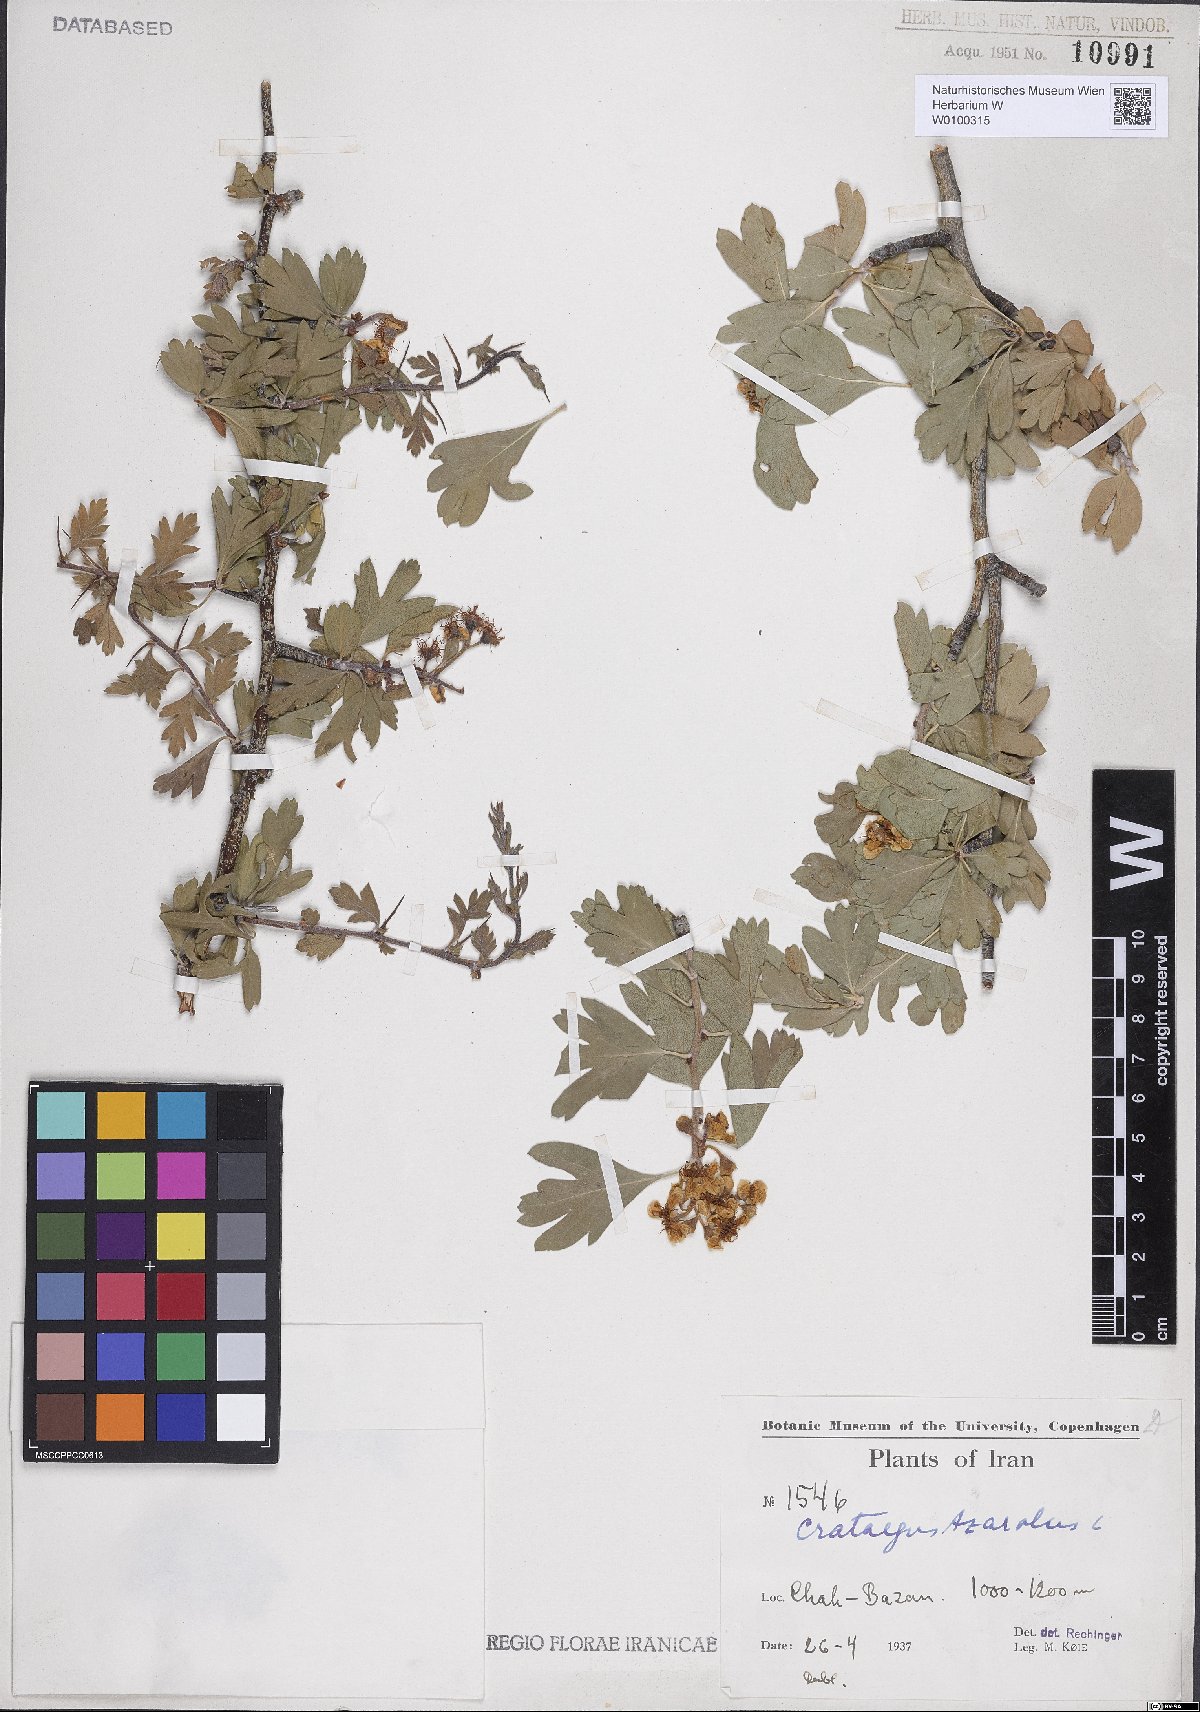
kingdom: Plantae
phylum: Tracheophyta
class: Magnoliopsida
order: Rosales
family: Rosaceae
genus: Crataegus
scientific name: Crataegus azarolus
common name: Azarole
